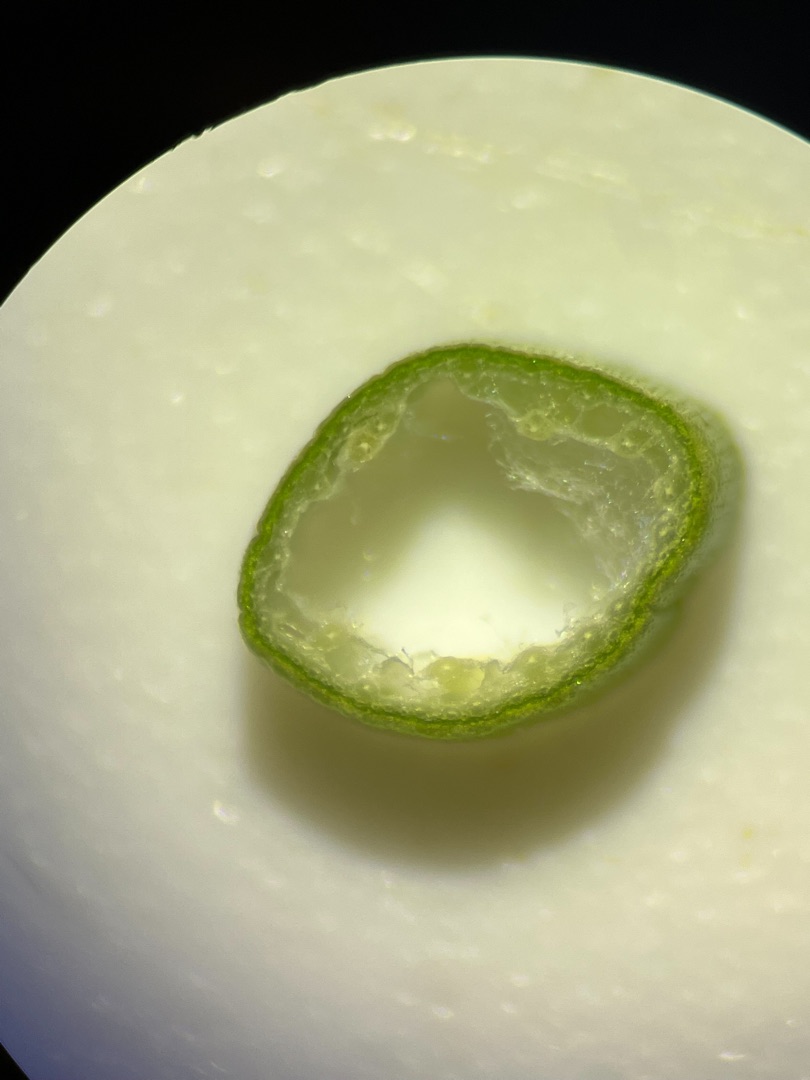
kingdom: Plantae
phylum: Tracheophyta
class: Liliopsida
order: Poales
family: Juncaceae
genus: Juncus
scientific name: Juncus subnodulosus
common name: Butblomstret siv
